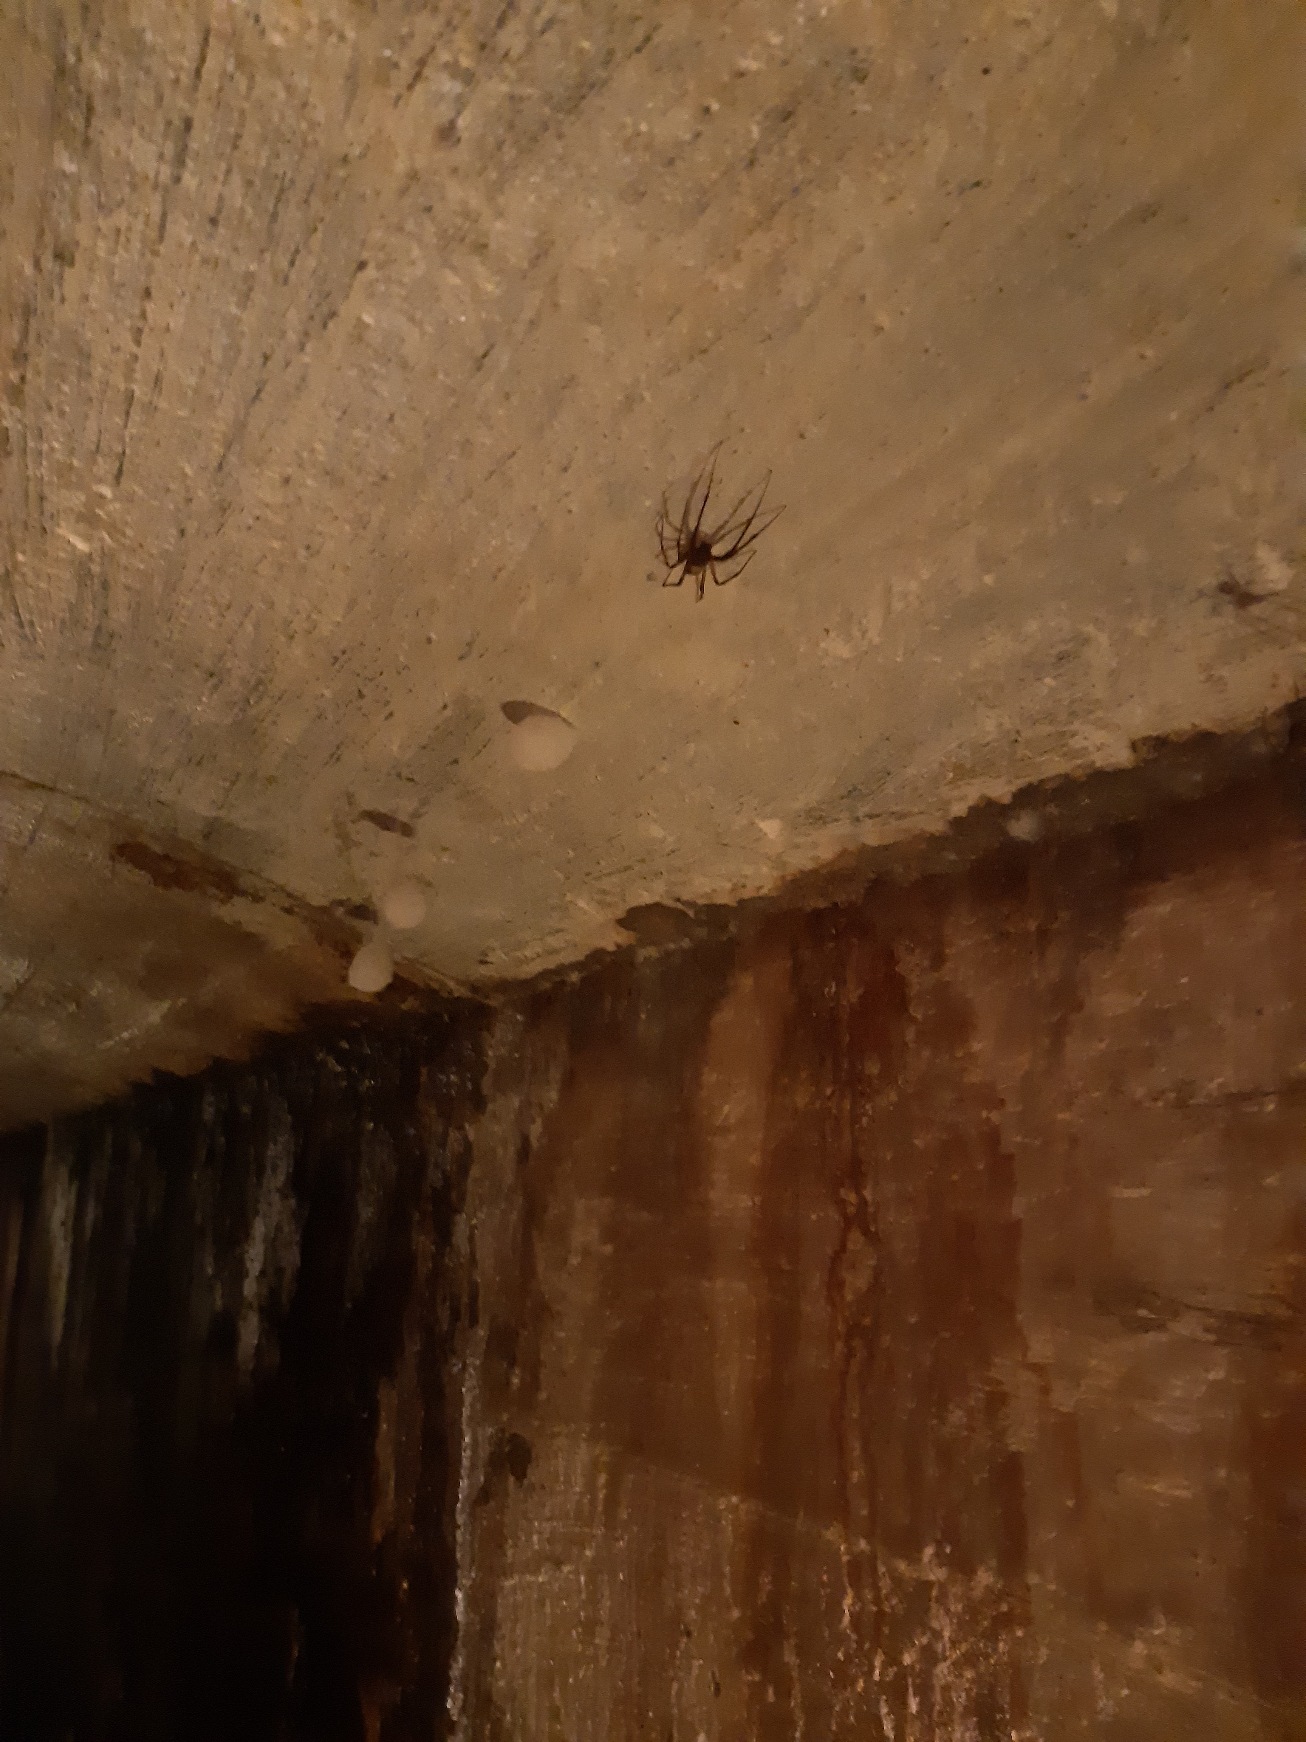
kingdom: Animalia
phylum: Arthropoda
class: Arachnida
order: Araneae
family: Tetragnathidae
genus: Meta
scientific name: Meta menardi
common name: Grotteedderkop
